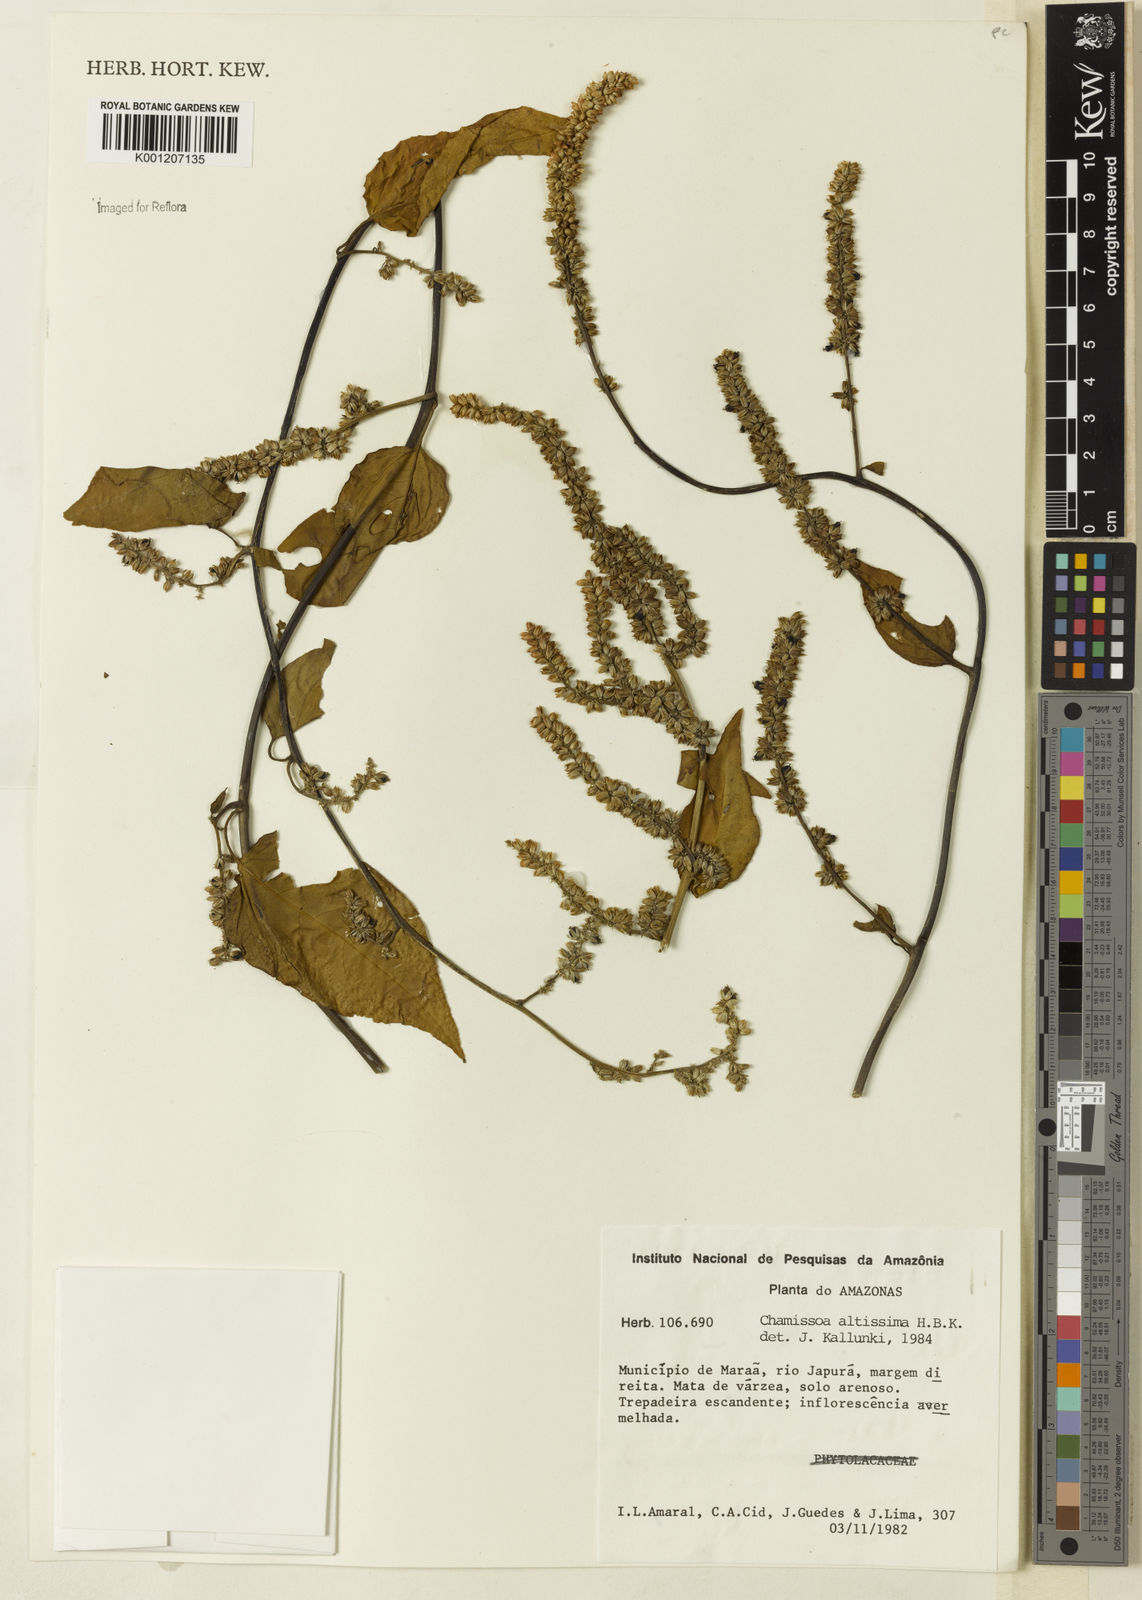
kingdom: Plantae
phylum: Tracheophyta
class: Magnoliopsida
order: Caryophyllales
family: Amaranthaceae
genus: Chamissoa
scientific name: Chamissoa altissima
